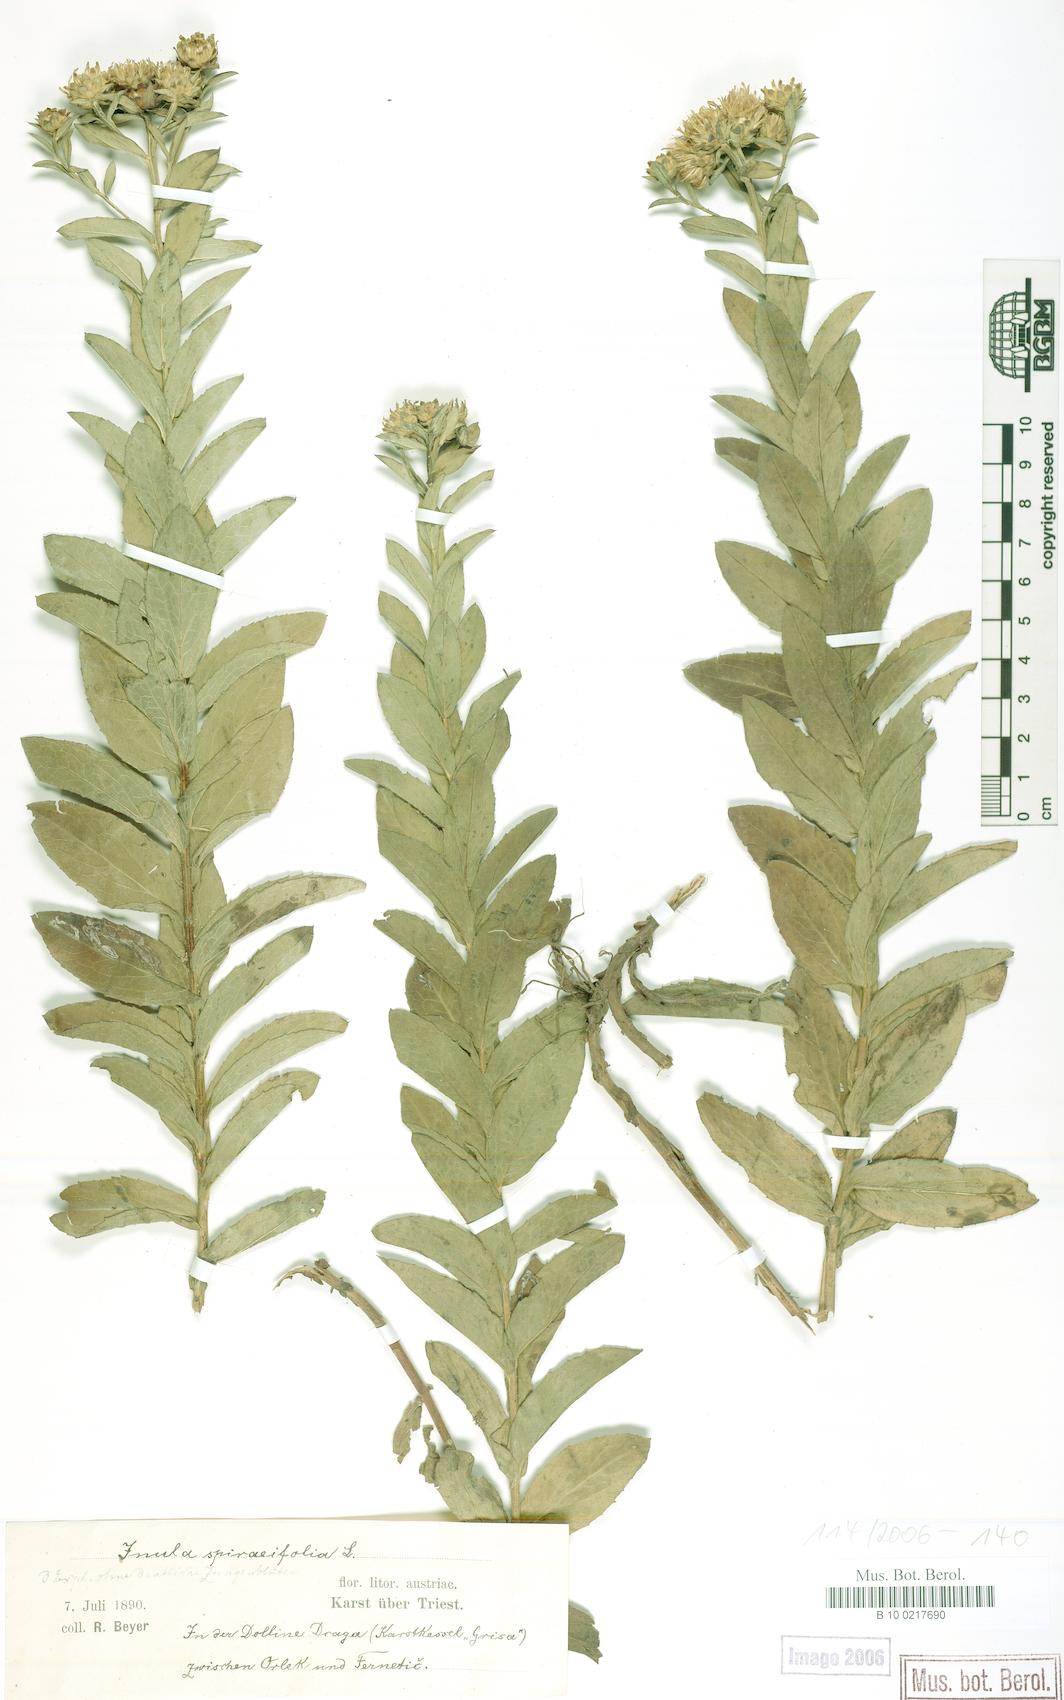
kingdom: Plantae
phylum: Tracheophyta
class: Magnoliopsida
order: Asterales
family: Asteraceae
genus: Pentanema
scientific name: Pentanema spiraeifolium
